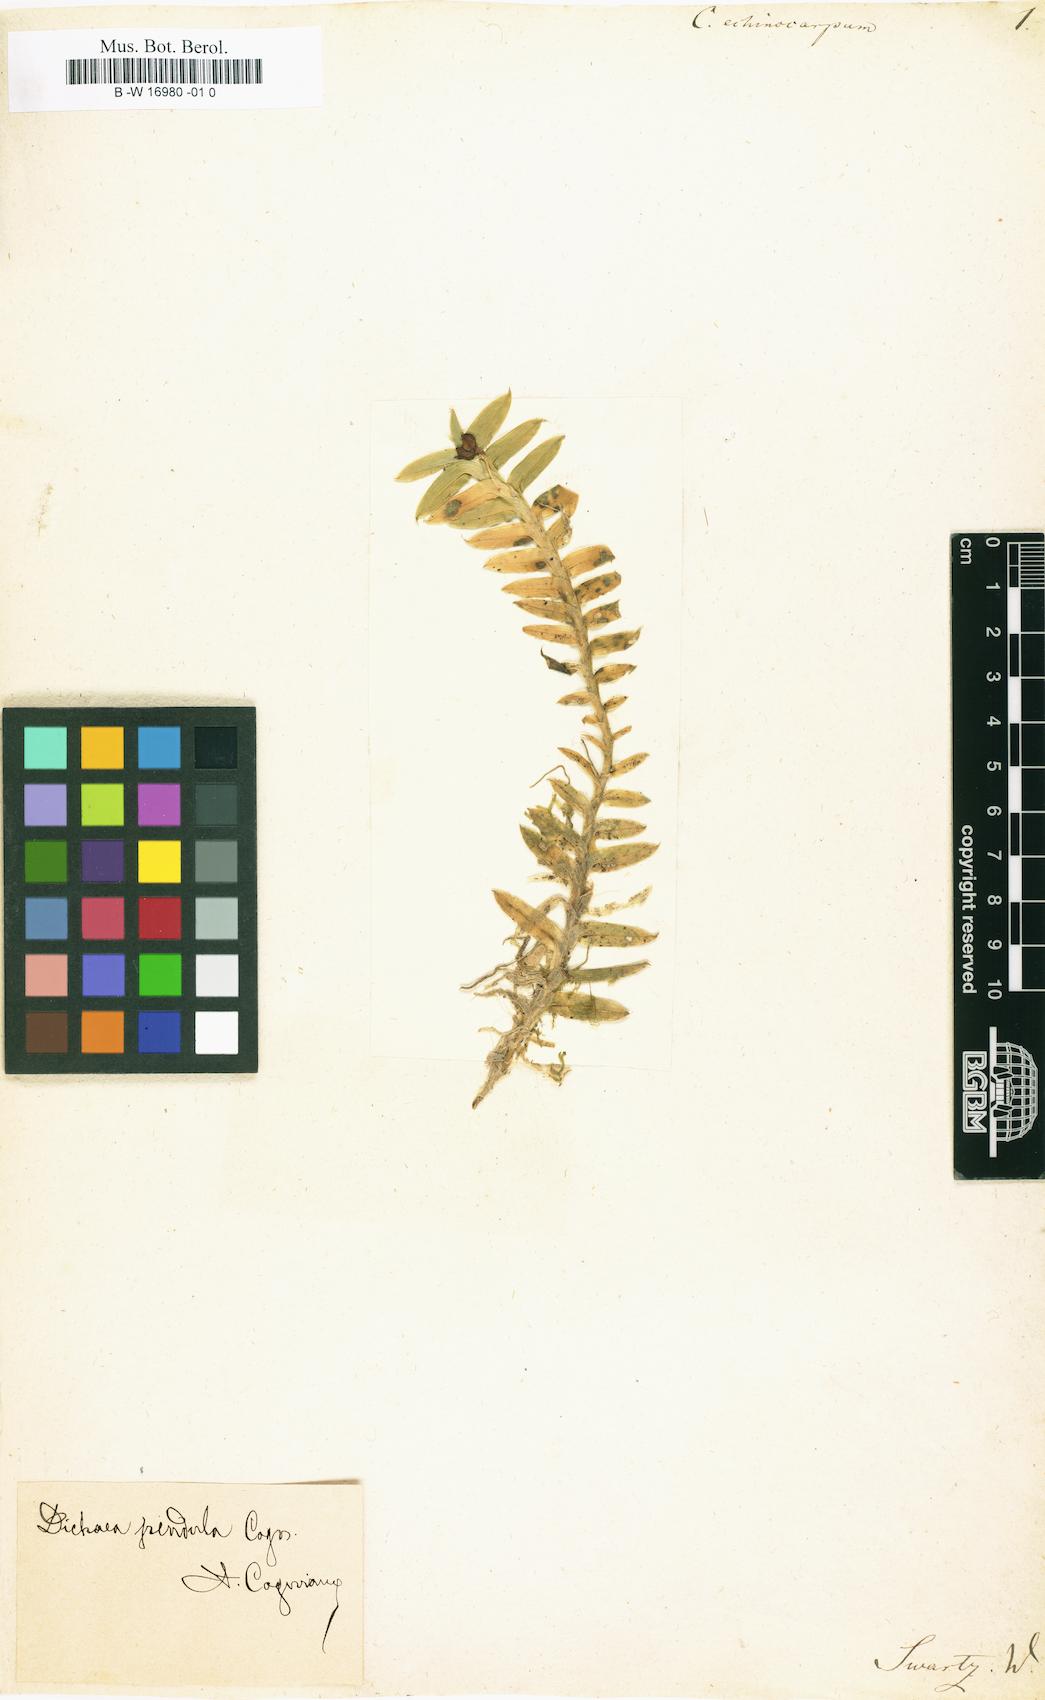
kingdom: Plantae
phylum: Tracheophyta
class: Liliopsida
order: Asparagales
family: Orchidaceae
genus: Dichaea
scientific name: Dichaea pendula
